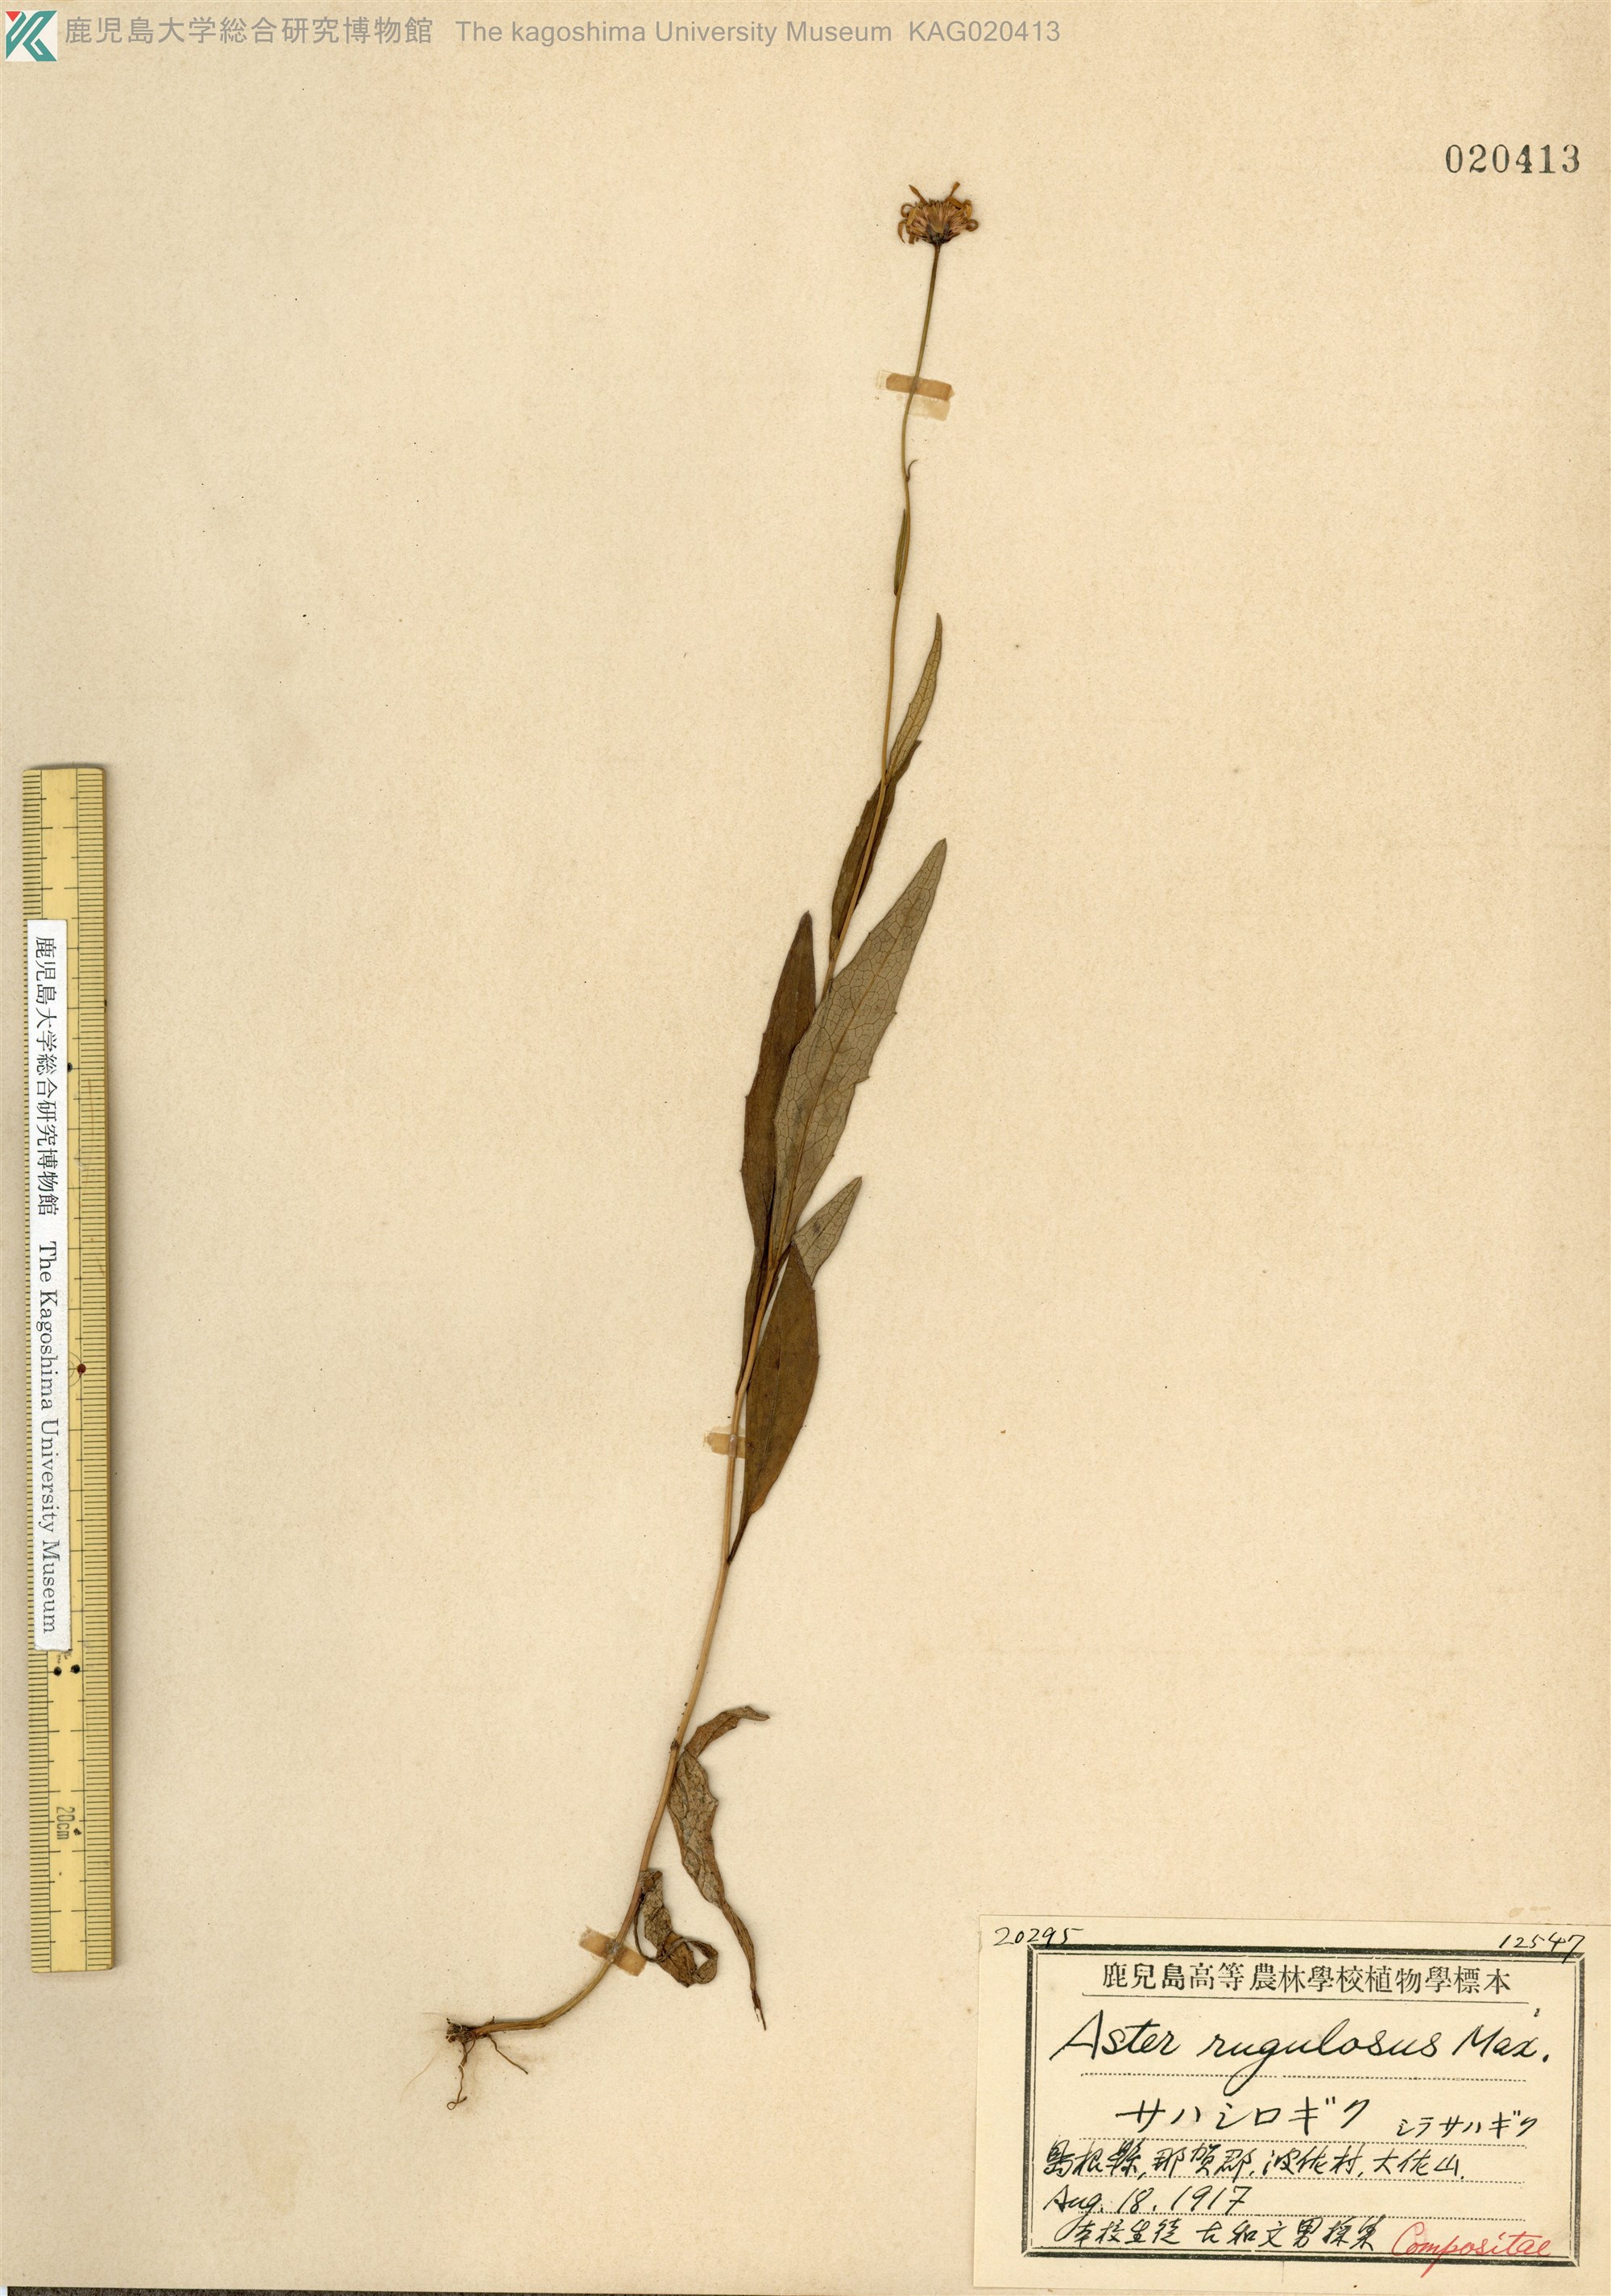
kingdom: Plantae
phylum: Tracheophyta
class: Magnoliopsida
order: Asterales
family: Asteraceae
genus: Cardiagyris
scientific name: Cardiagyris rugulosa
